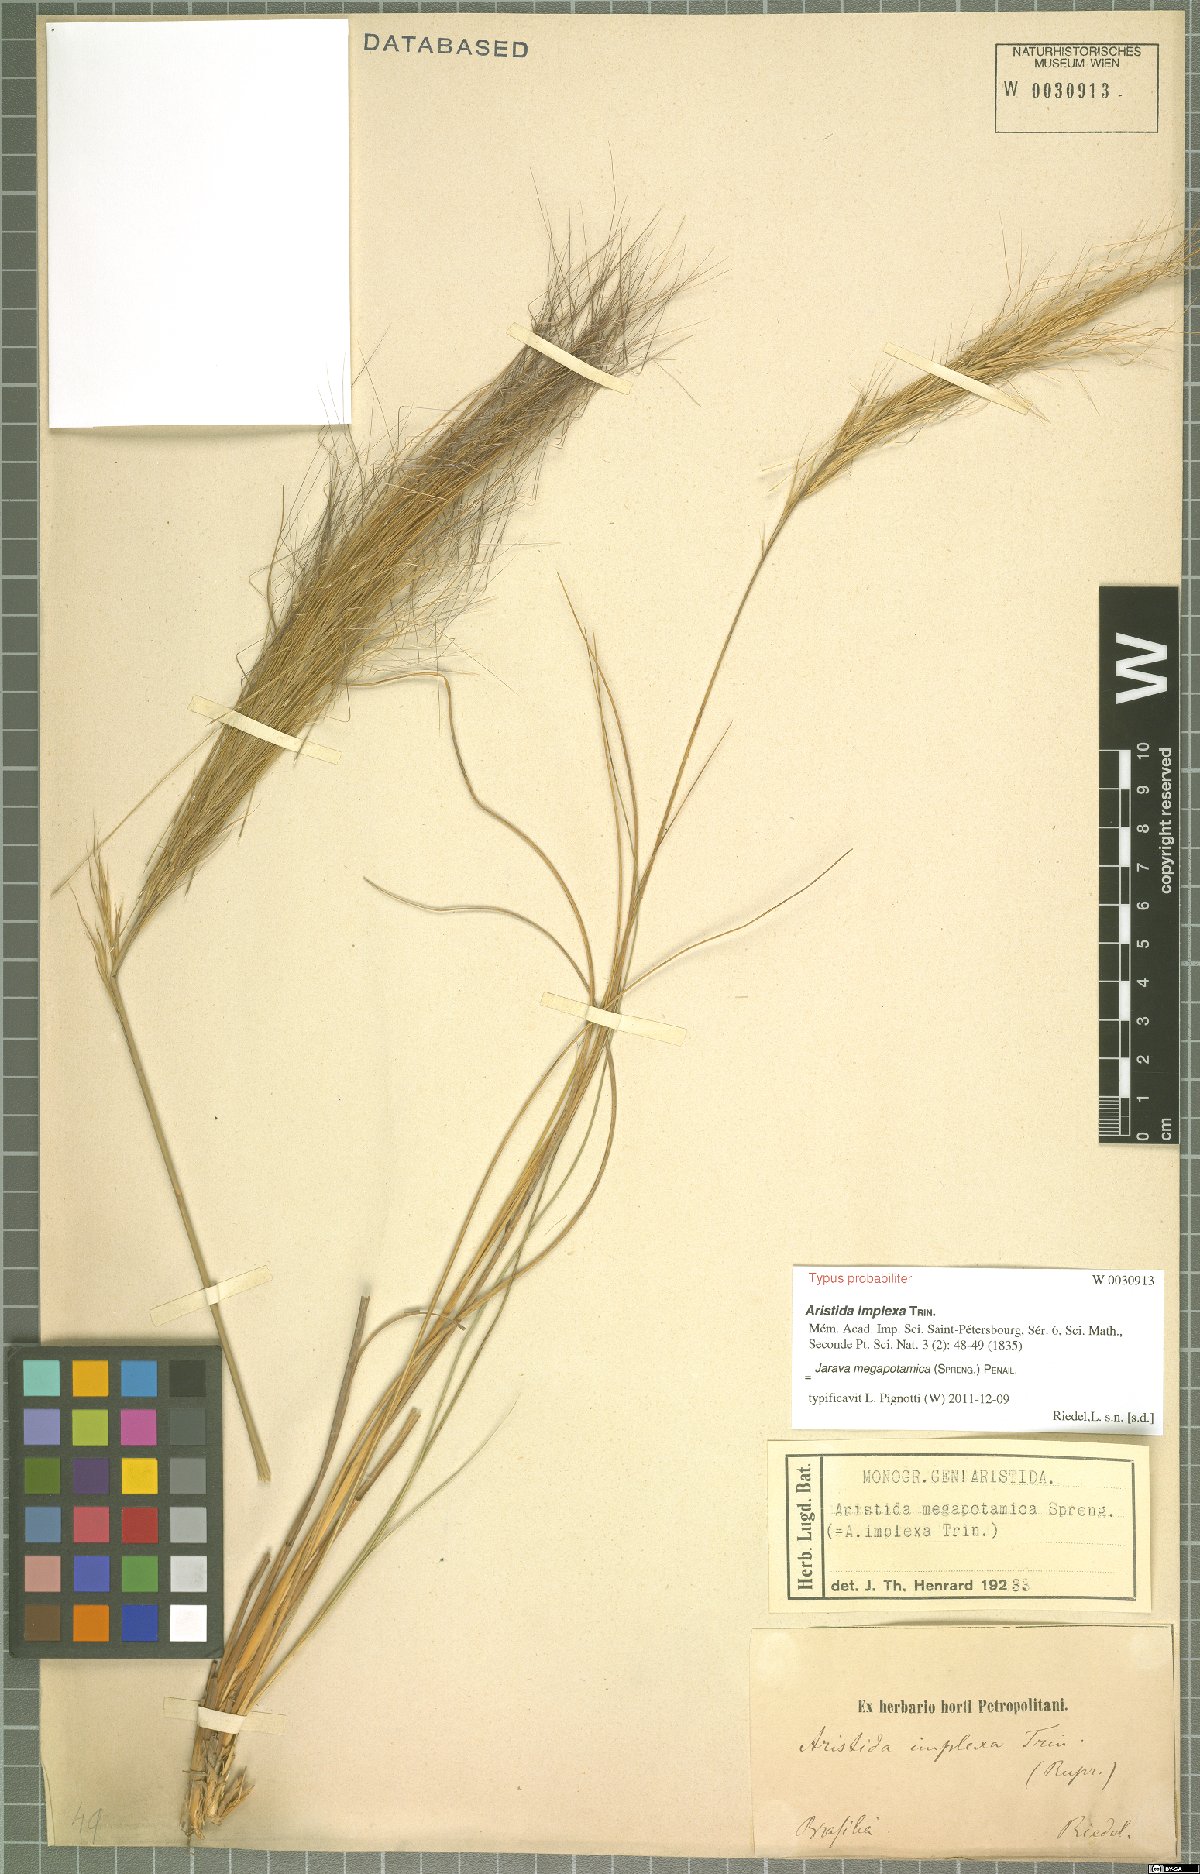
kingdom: Plantae
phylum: Tracheophyta
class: Liliopsida
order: Poales
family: Poaceae
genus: Aristida
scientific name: Aristida megapotamica
